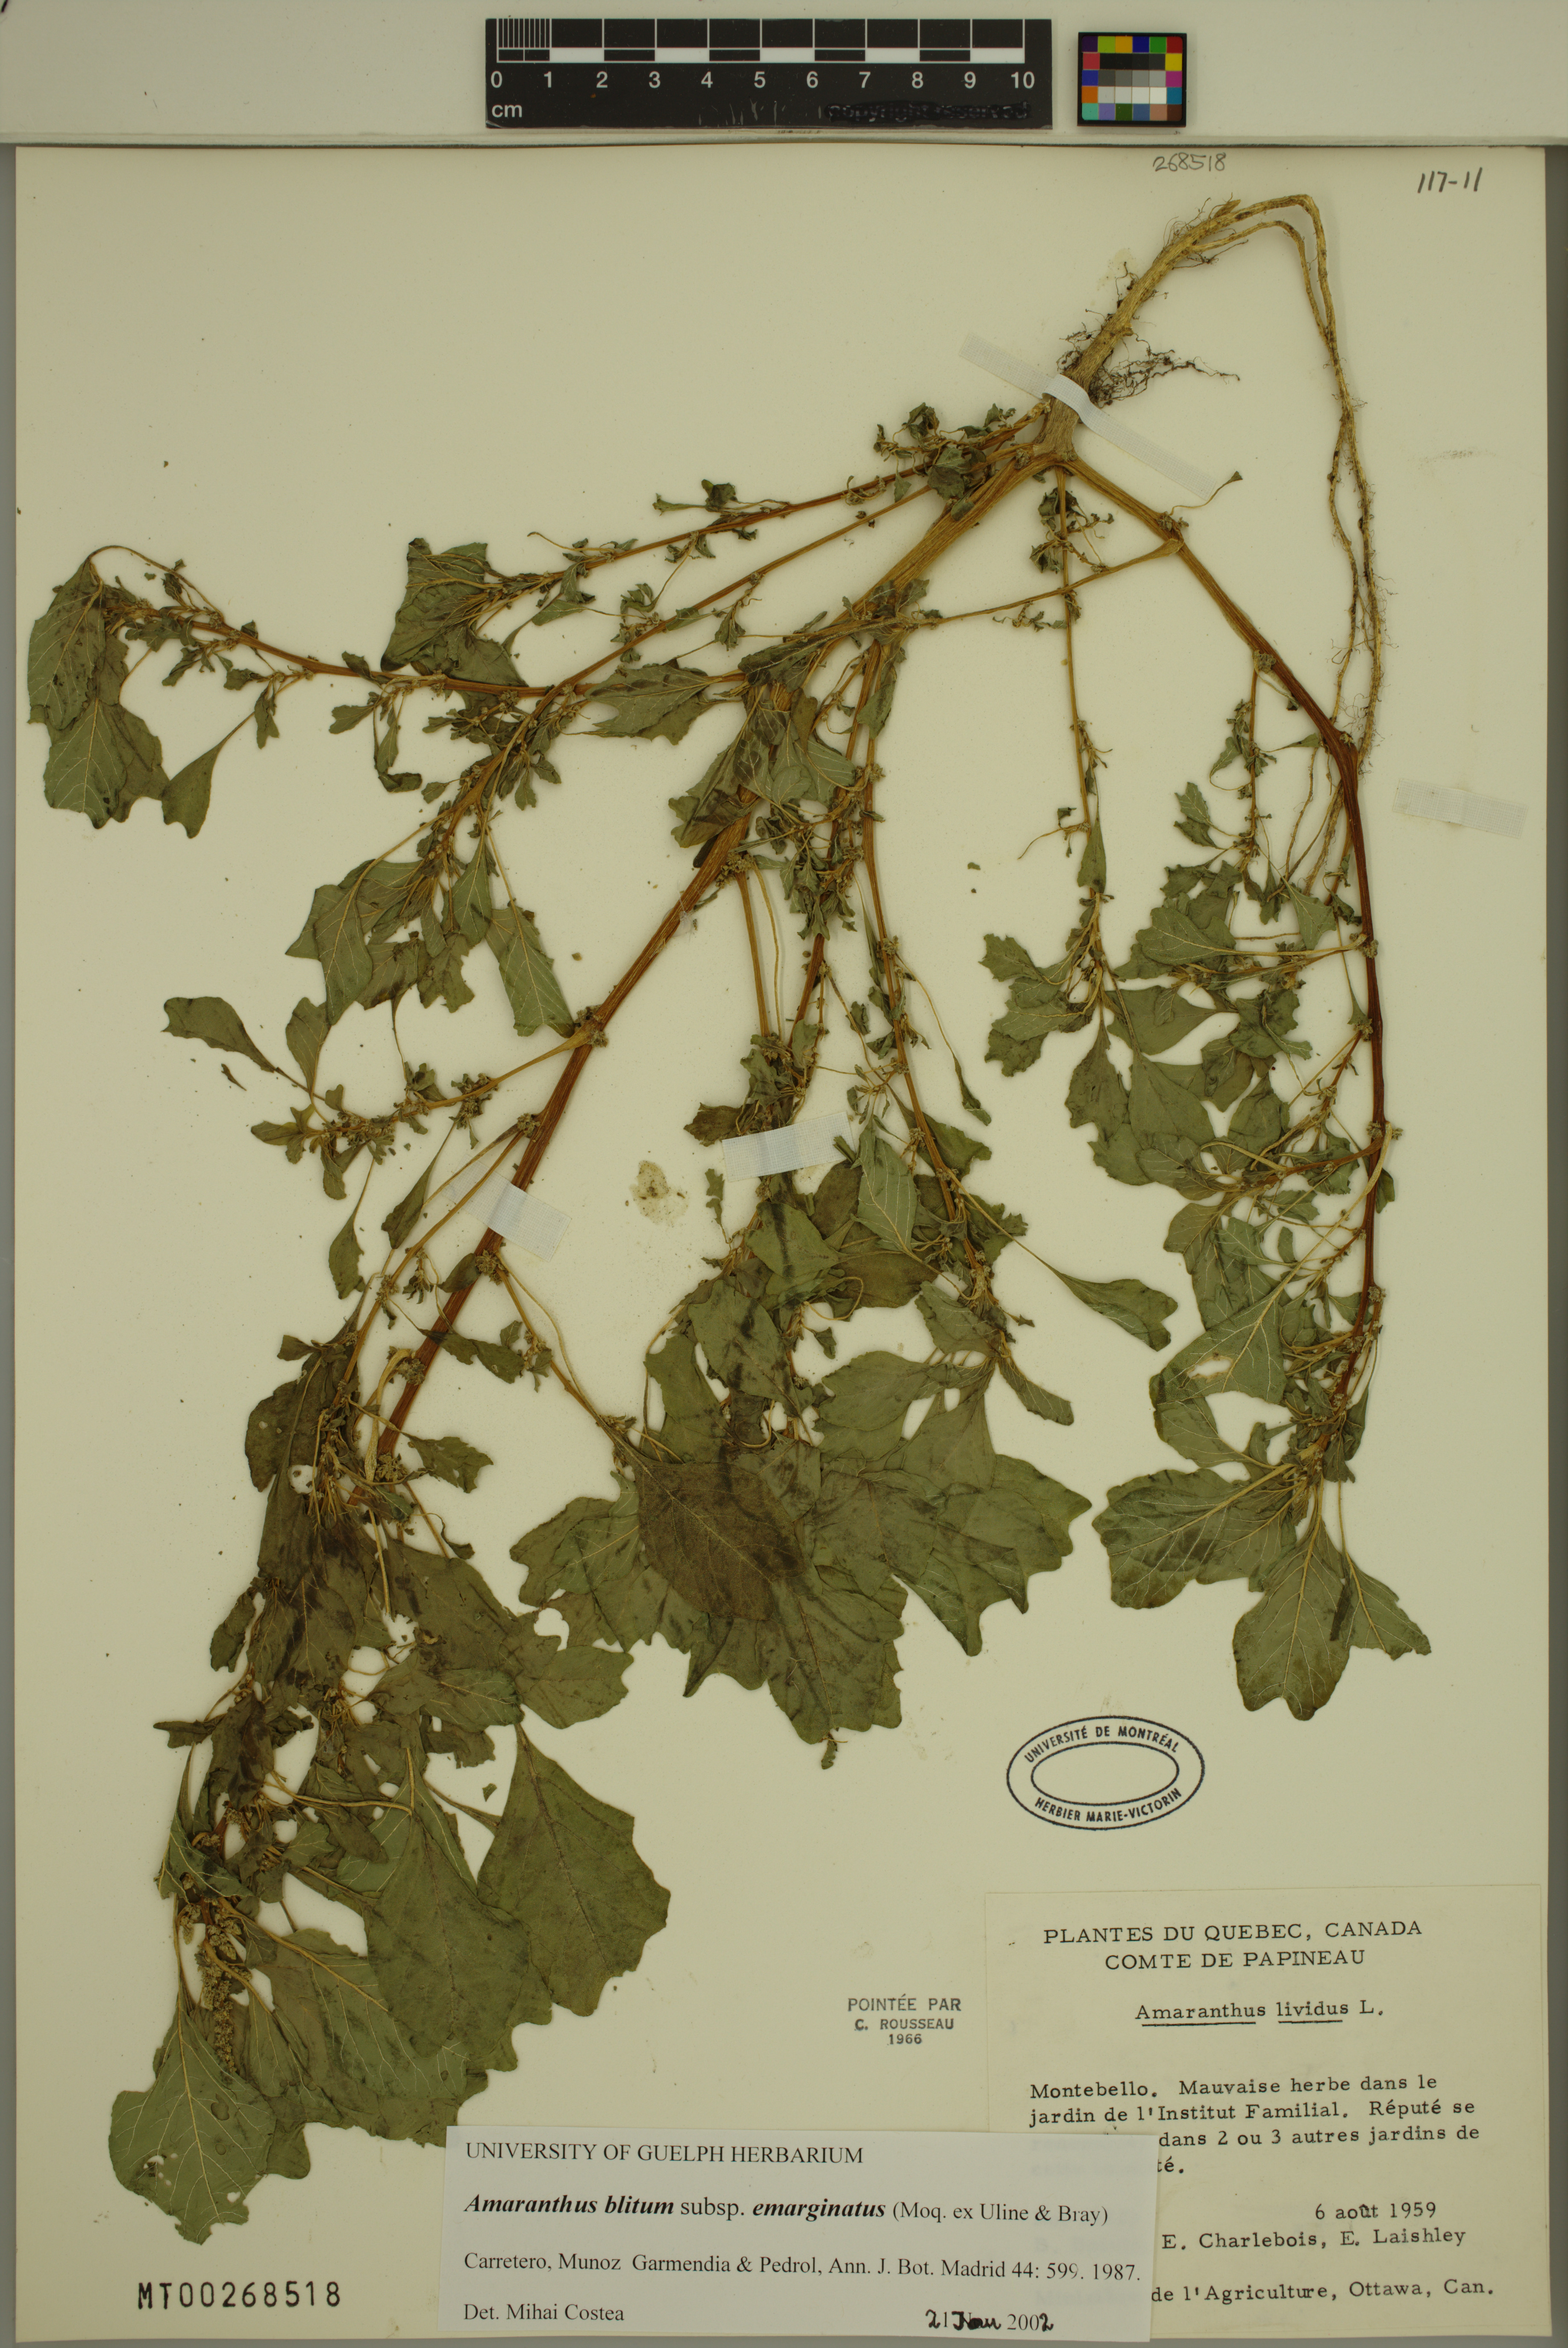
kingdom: Plantae
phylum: Tracheophyta
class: Magnoliopsida
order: Caryophyllales
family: Amaranthaceae
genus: Amaranthus
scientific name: Amaranthus emarginatus
